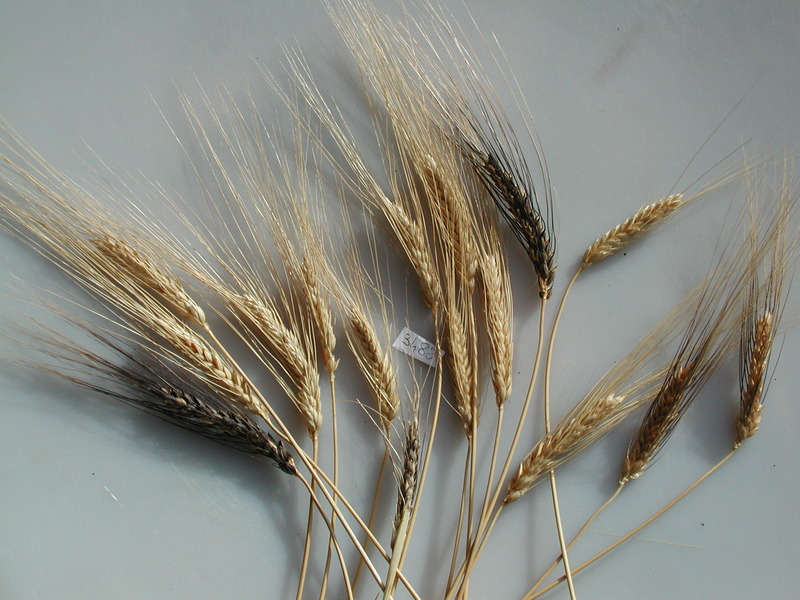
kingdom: Plantae
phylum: Tracheophyta
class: Liliopsida
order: Poales
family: Poaceae
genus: Triticum
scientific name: Triticum turgidum
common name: Wheat
